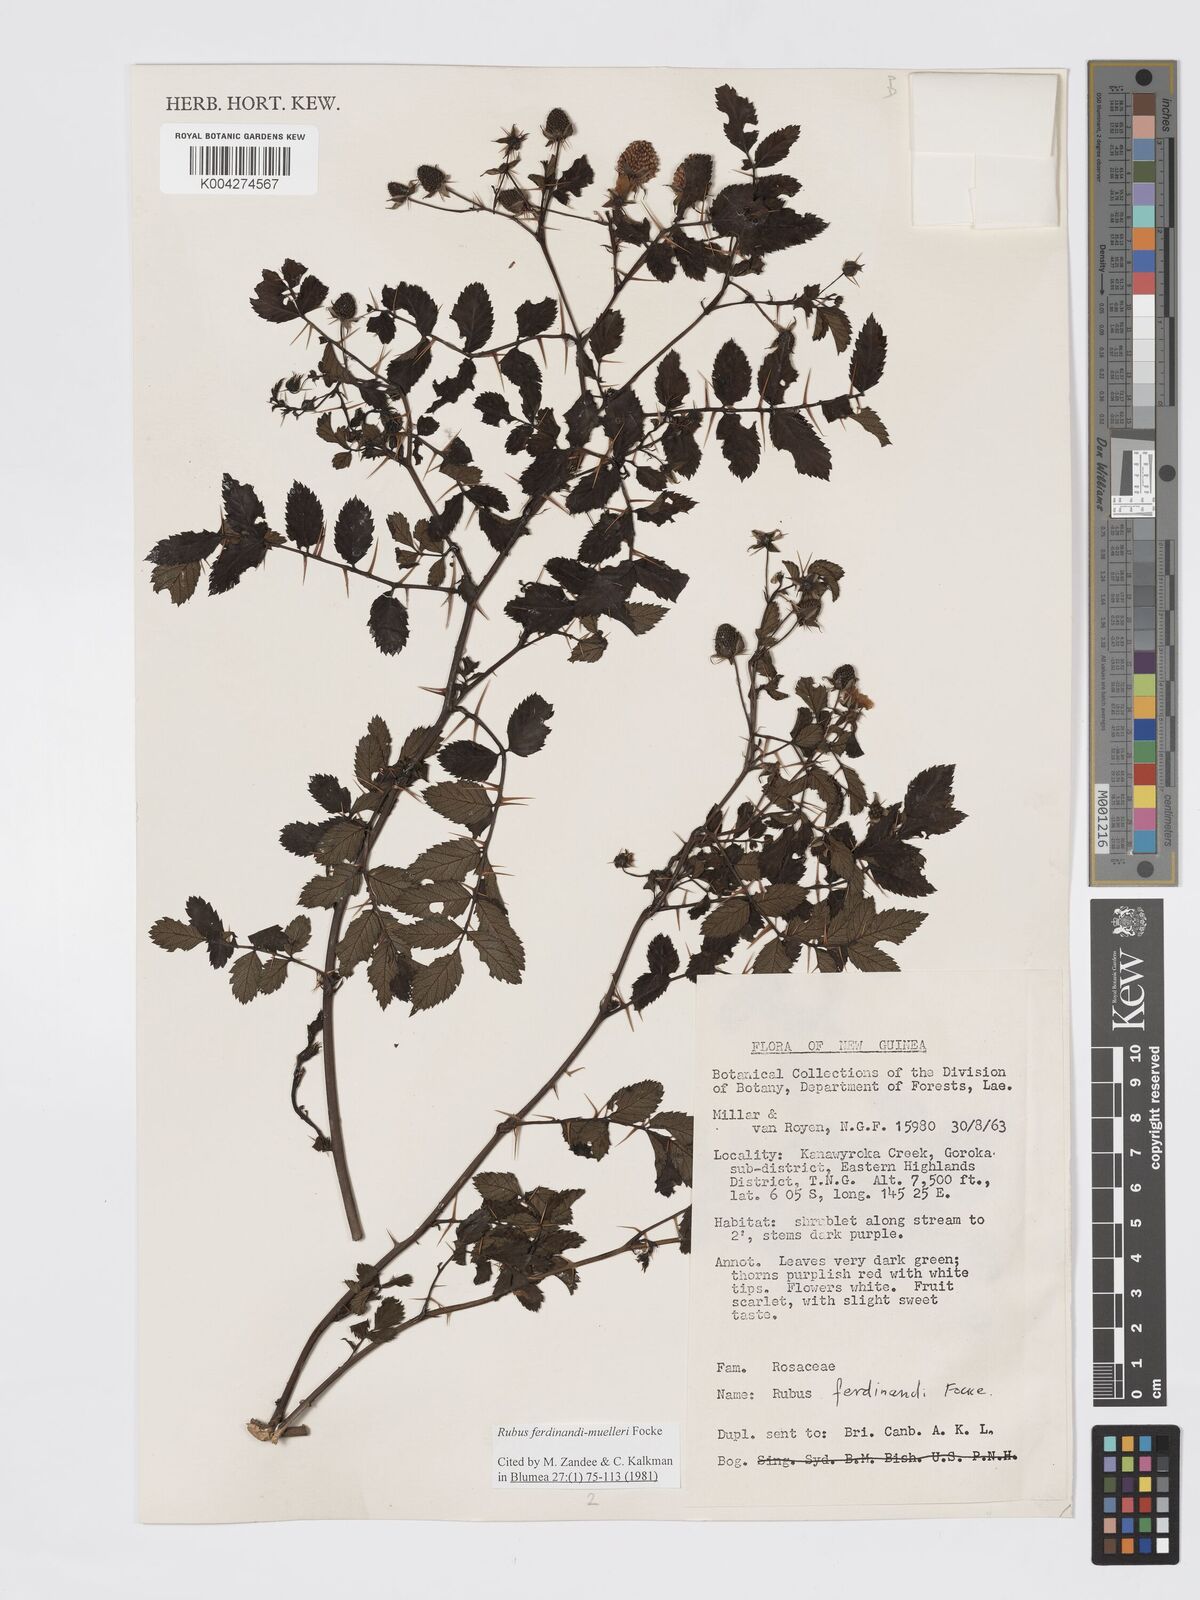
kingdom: Plantae
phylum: Tracheophyta
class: Magnoliopsida
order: Rosales
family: Rosaceae
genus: Rubus
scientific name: Rubus ferdinandimuelleri
